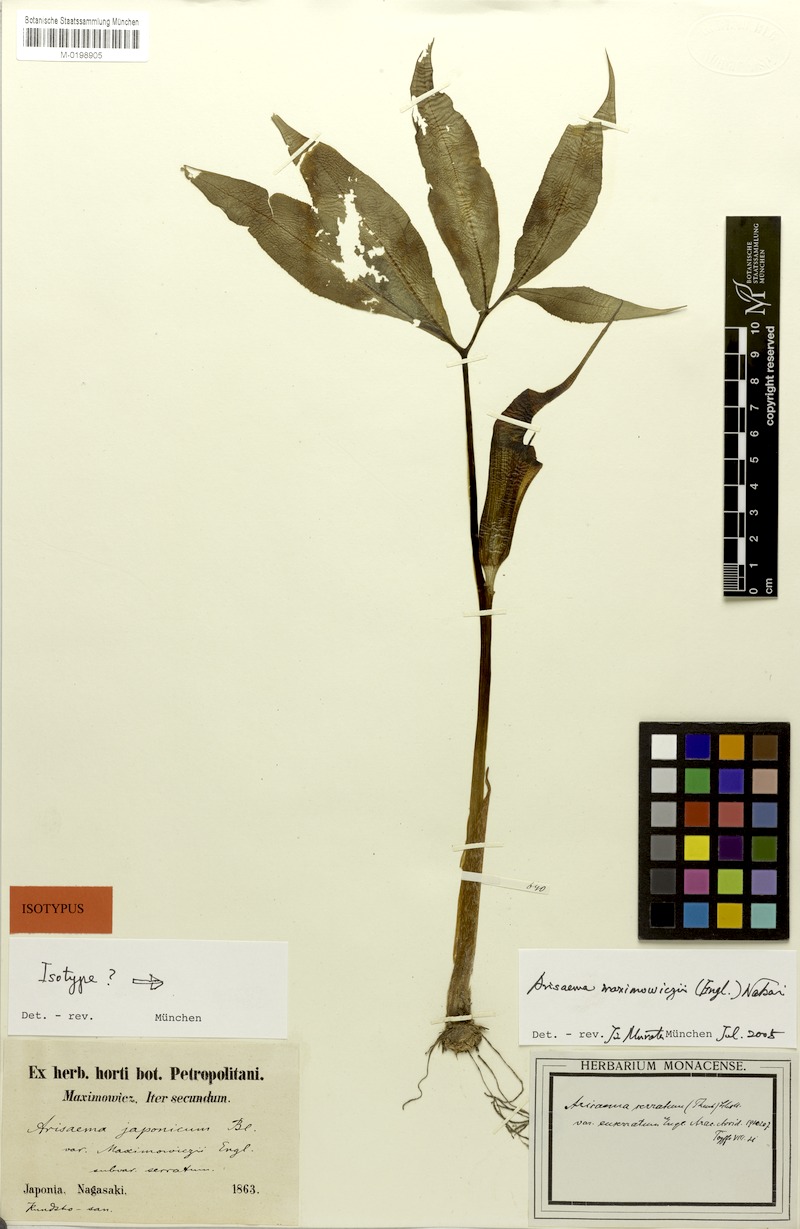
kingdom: Plantae
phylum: Tracheophyta
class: Liliopsida
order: Alismatales
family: Araceae
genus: Arisaema
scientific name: Arisaema maximowiczii
